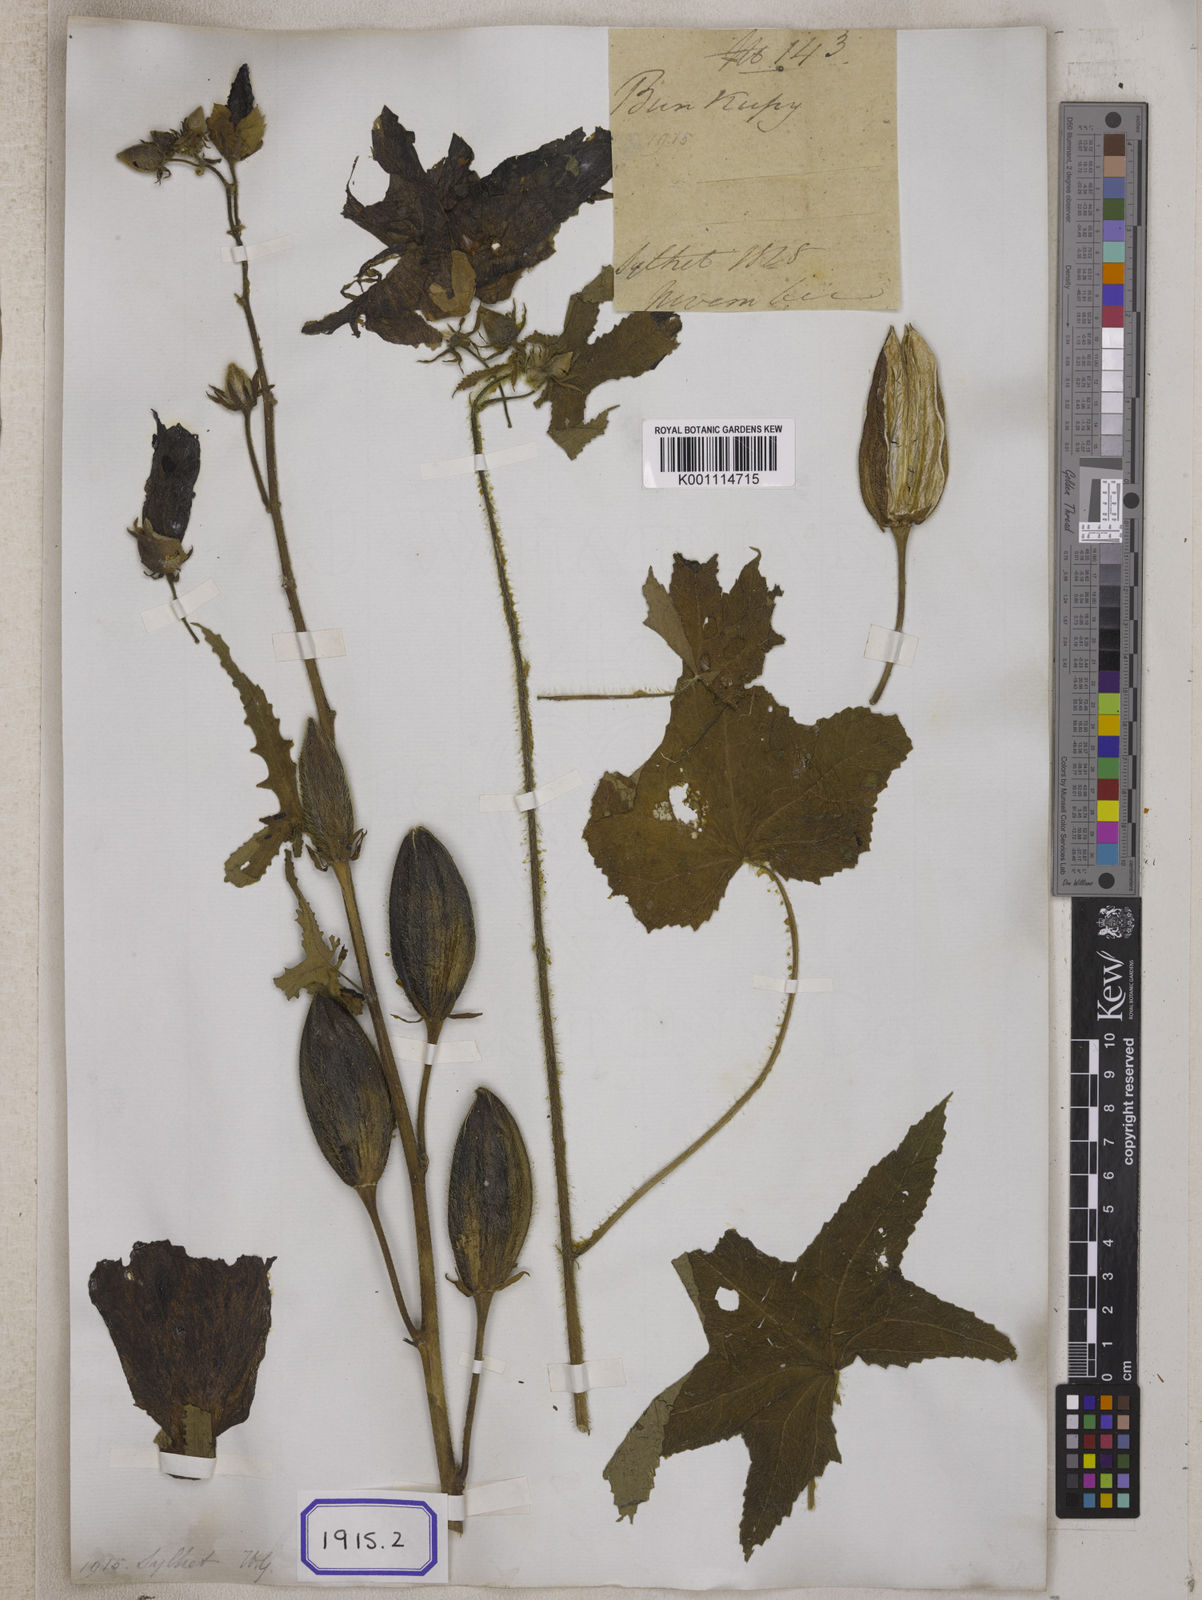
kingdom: Plantae
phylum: Tracheophyta
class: Magnoliopsida
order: Malvales
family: Malvaceae
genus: Bamia
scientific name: Bamia
